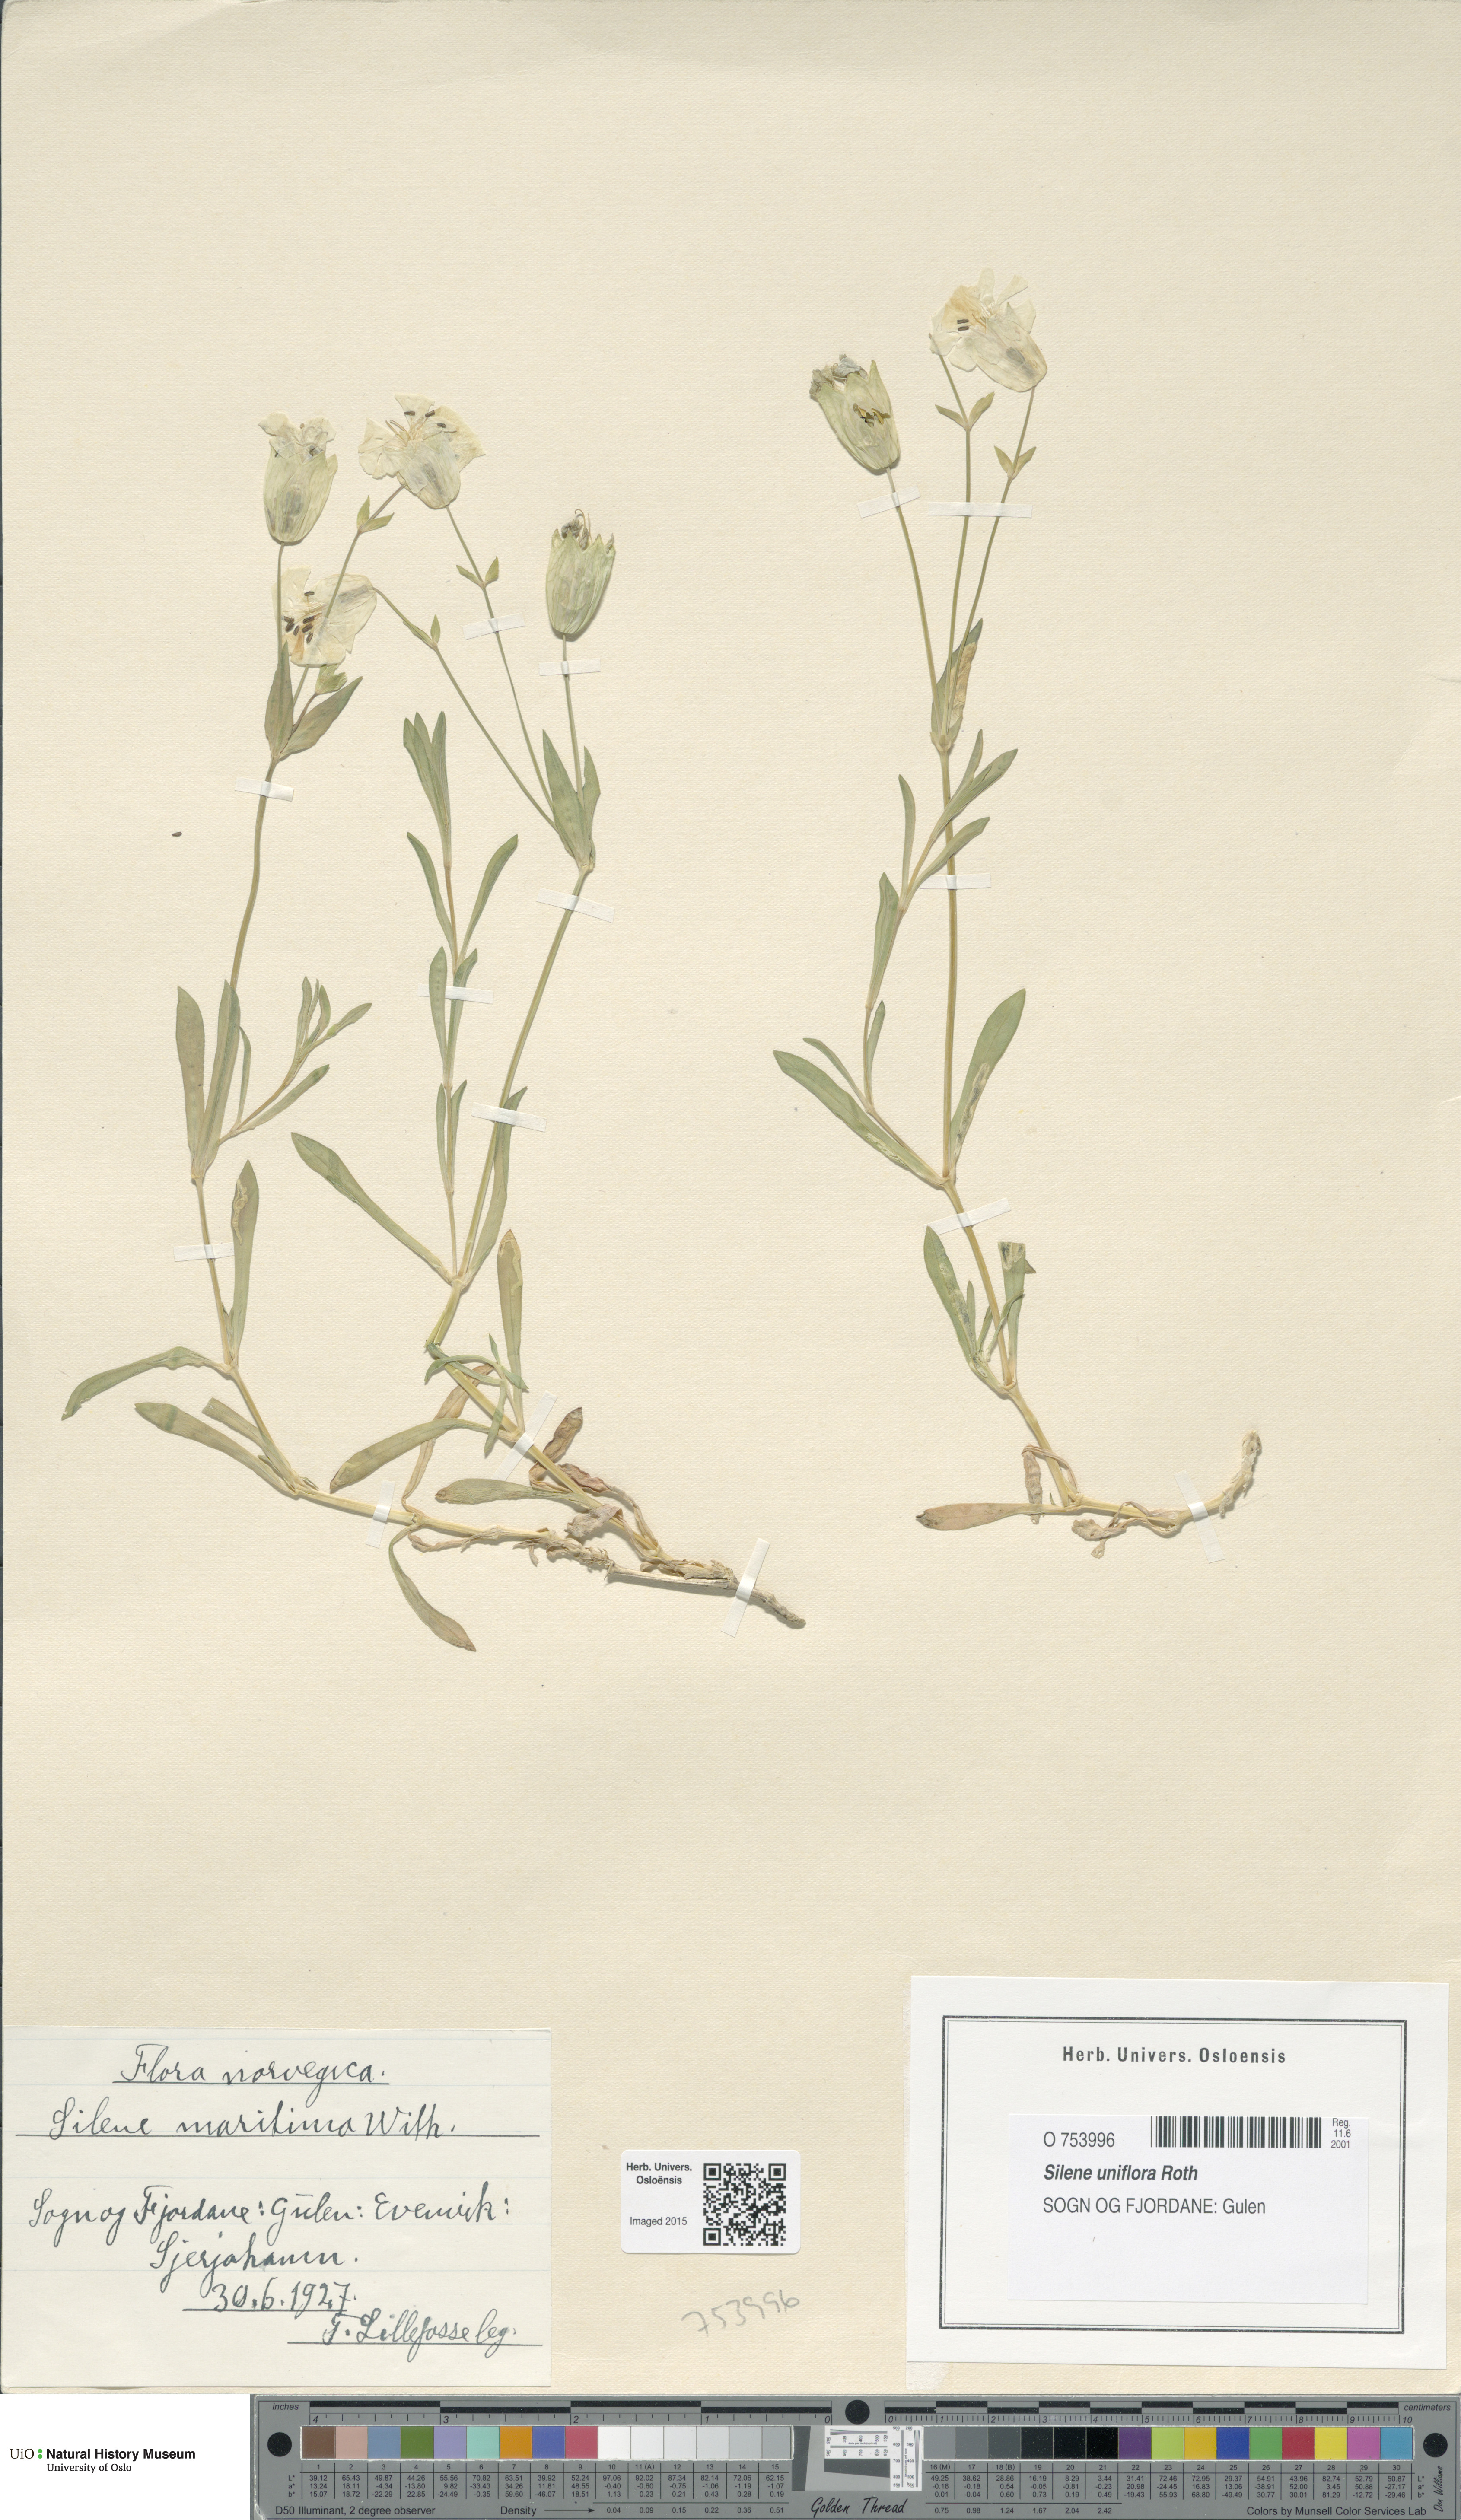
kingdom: Plantae
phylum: Tracheophyta
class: Magnoliopsida
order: Caryophyllales
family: Caryophyllaceae
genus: Silene
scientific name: Silene uniflora
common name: Sea campion
